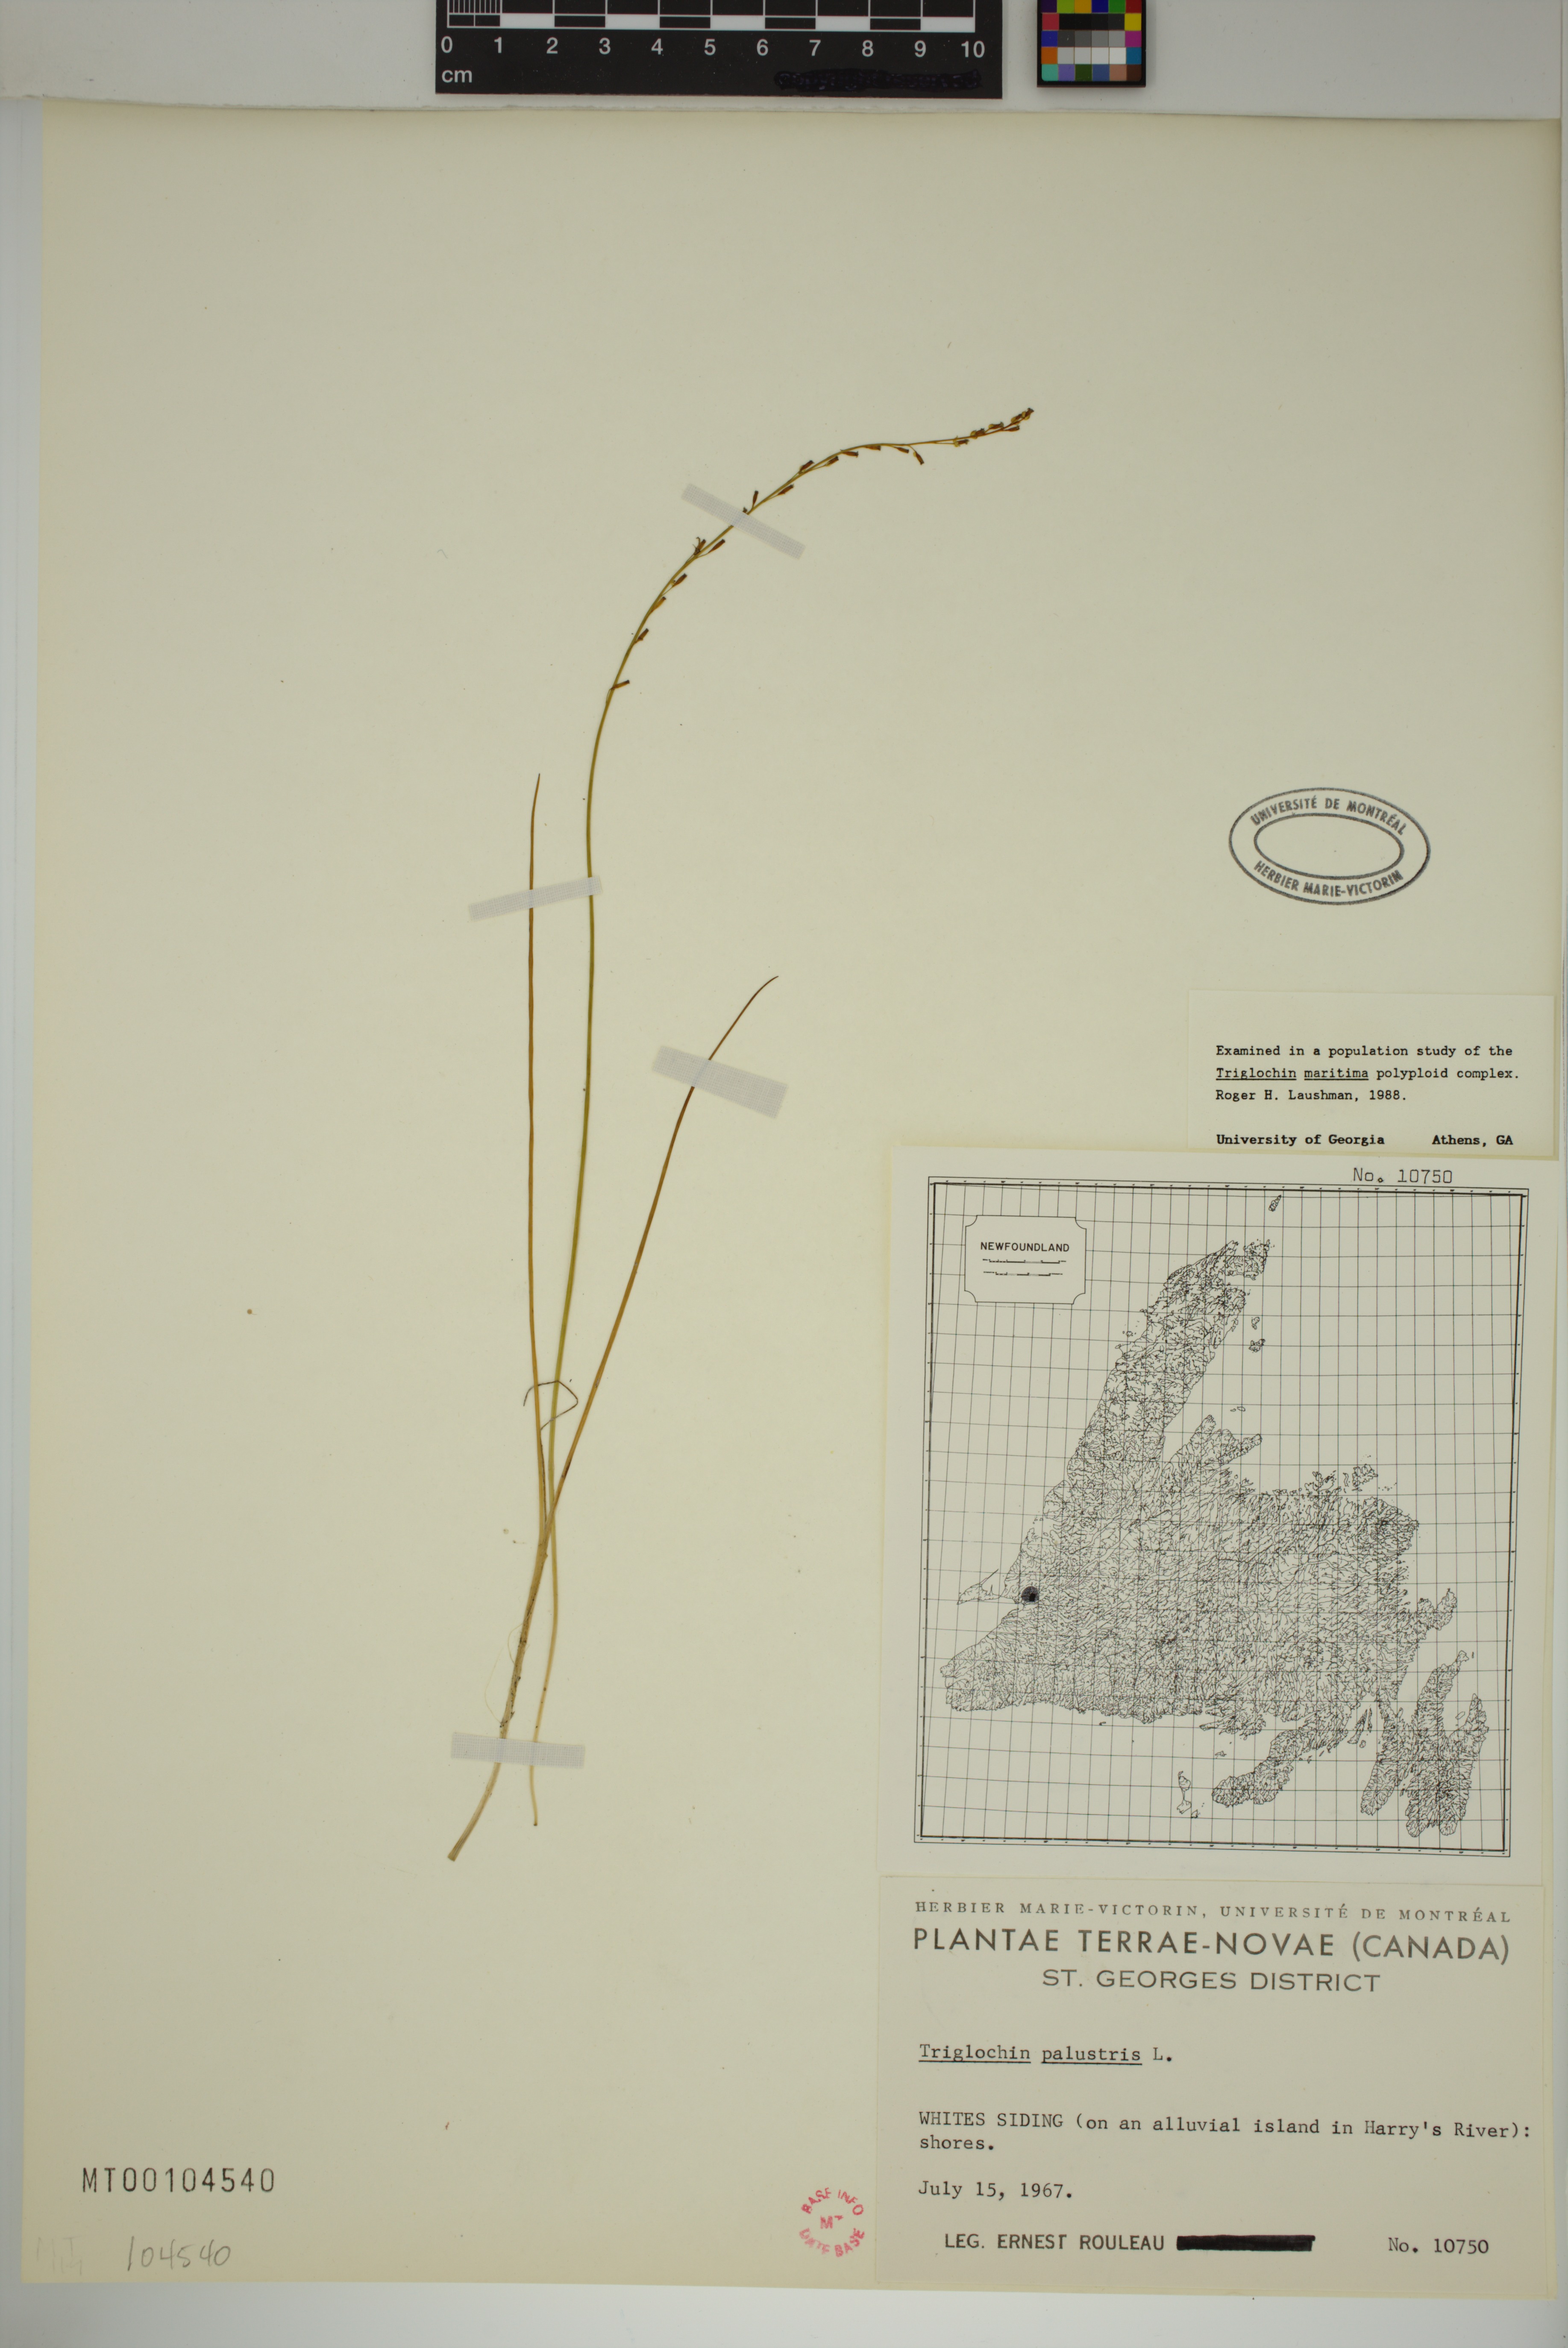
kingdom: Plantae
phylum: Tracheophyta
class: Liliopsida
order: Alismatales
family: Juncaginaceae
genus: Triglochin
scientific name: Triglochin palustris
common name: Marsh arrowgrass
